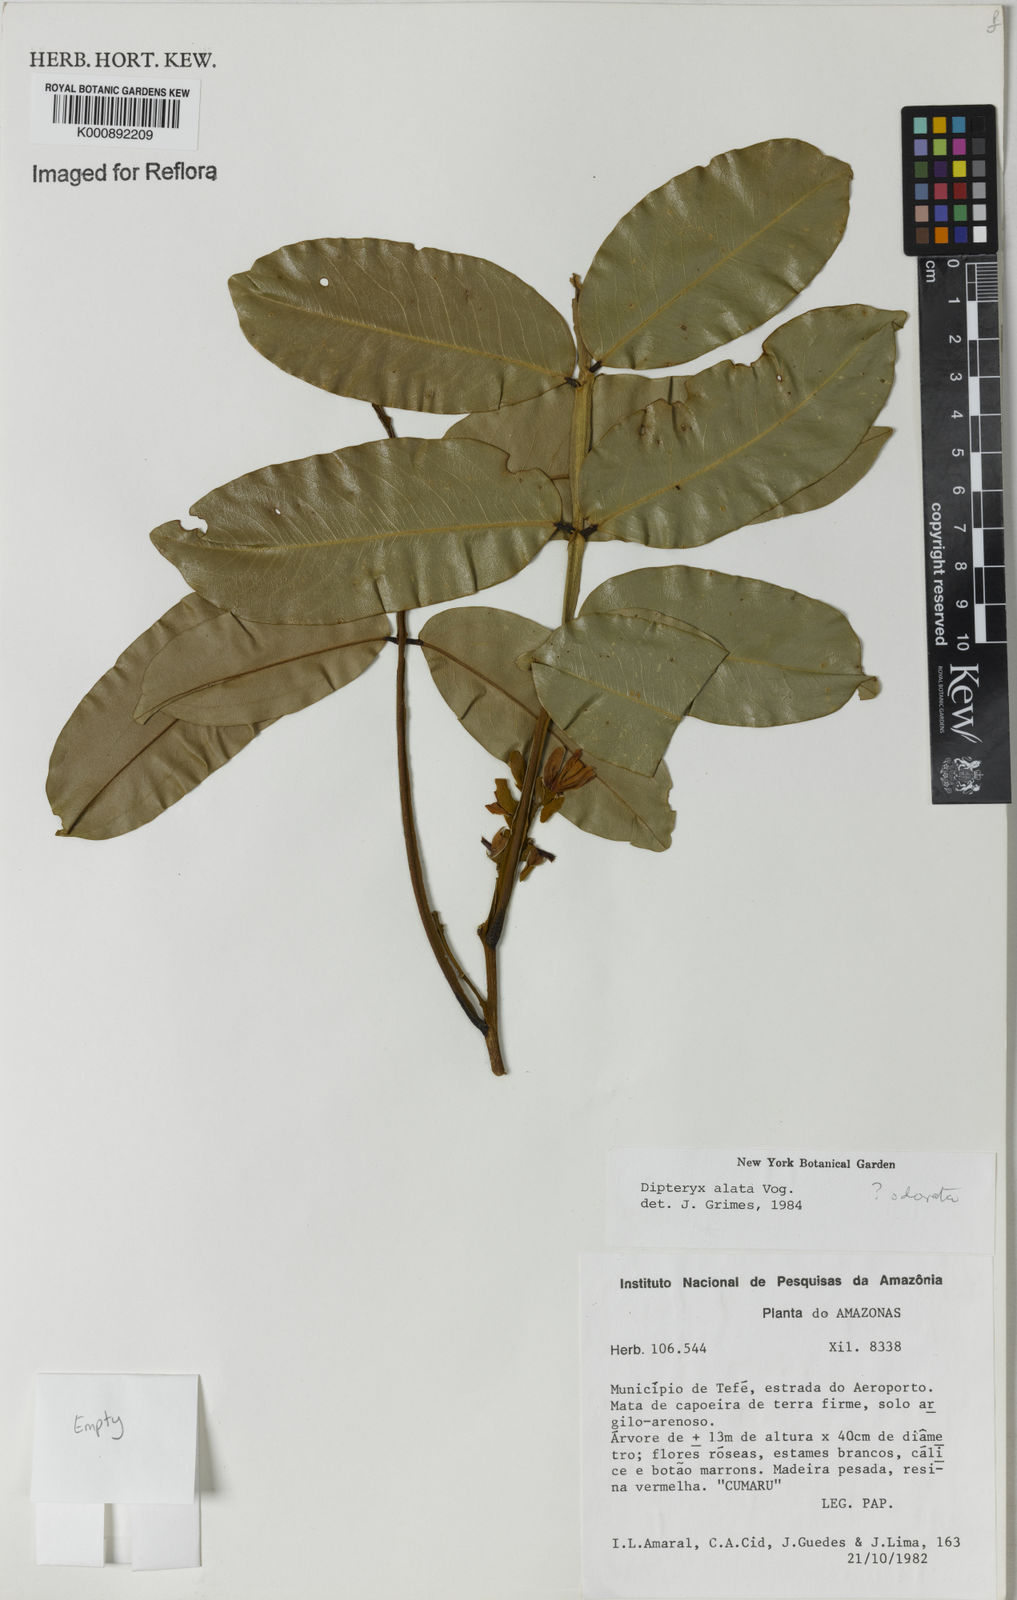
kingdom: Plantae
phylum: Tracheophyta
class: Magnoliopsida
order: Fabales
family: Fabaceae
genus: Dipteryx
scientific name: Dipteryx alata
